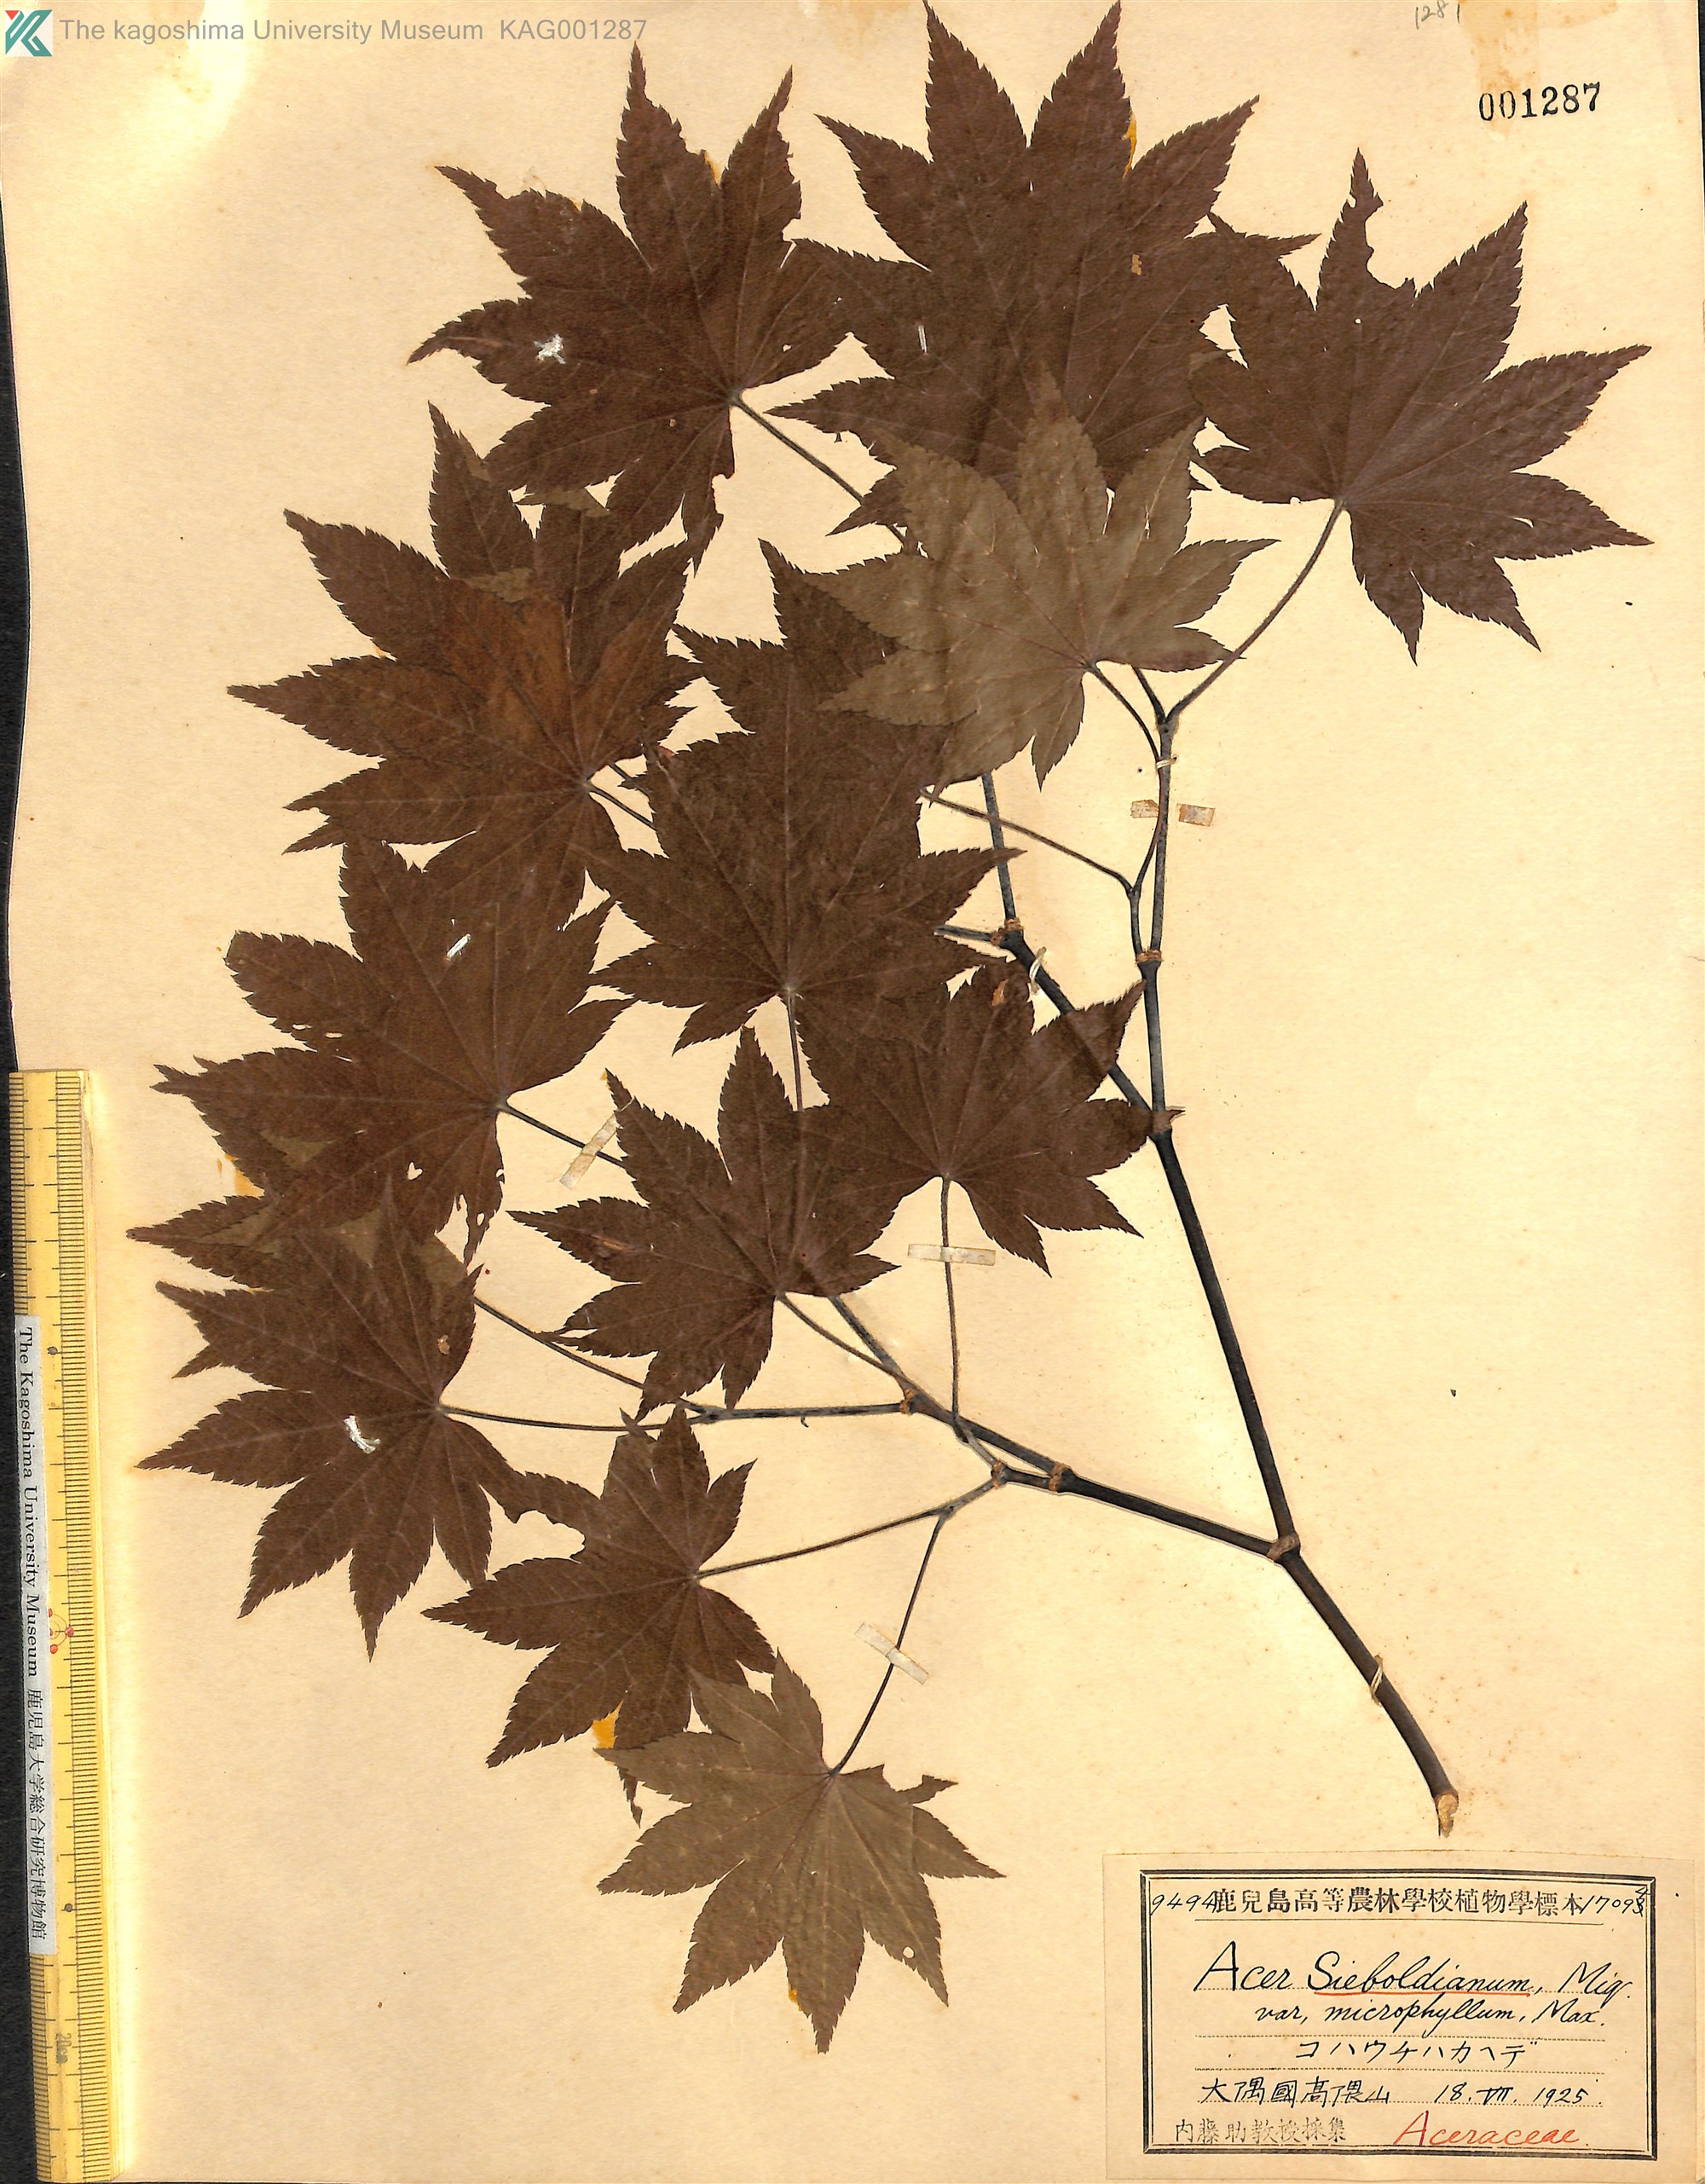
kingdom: Plantae
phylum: Tracheophyta
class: Magnoliopsida
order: Sapindales
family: Sapindaceae
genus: Acer
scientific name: Acer sieboldianum
